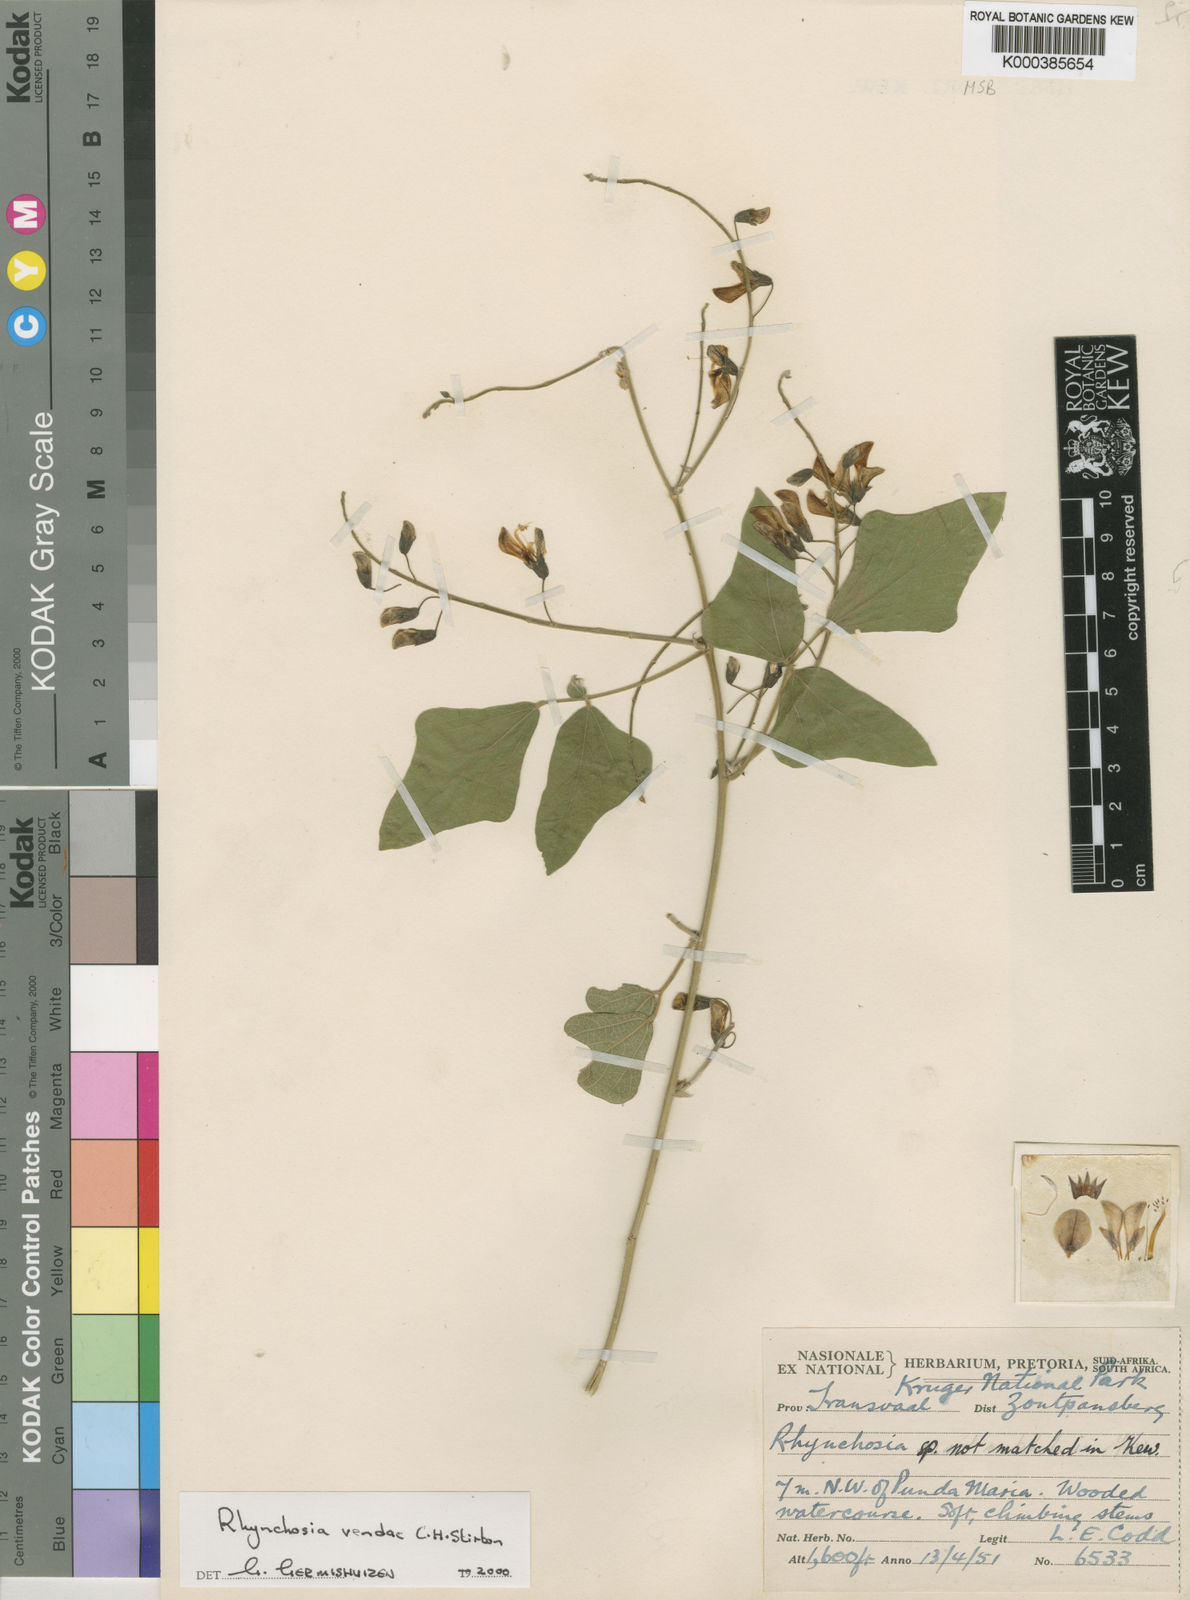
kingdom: Plantae
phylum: Tracheophyta
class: Magnoliopsida
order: Fabales
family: Fabaceae
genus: Rhynchosia
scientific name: Rhynchosia vendae
